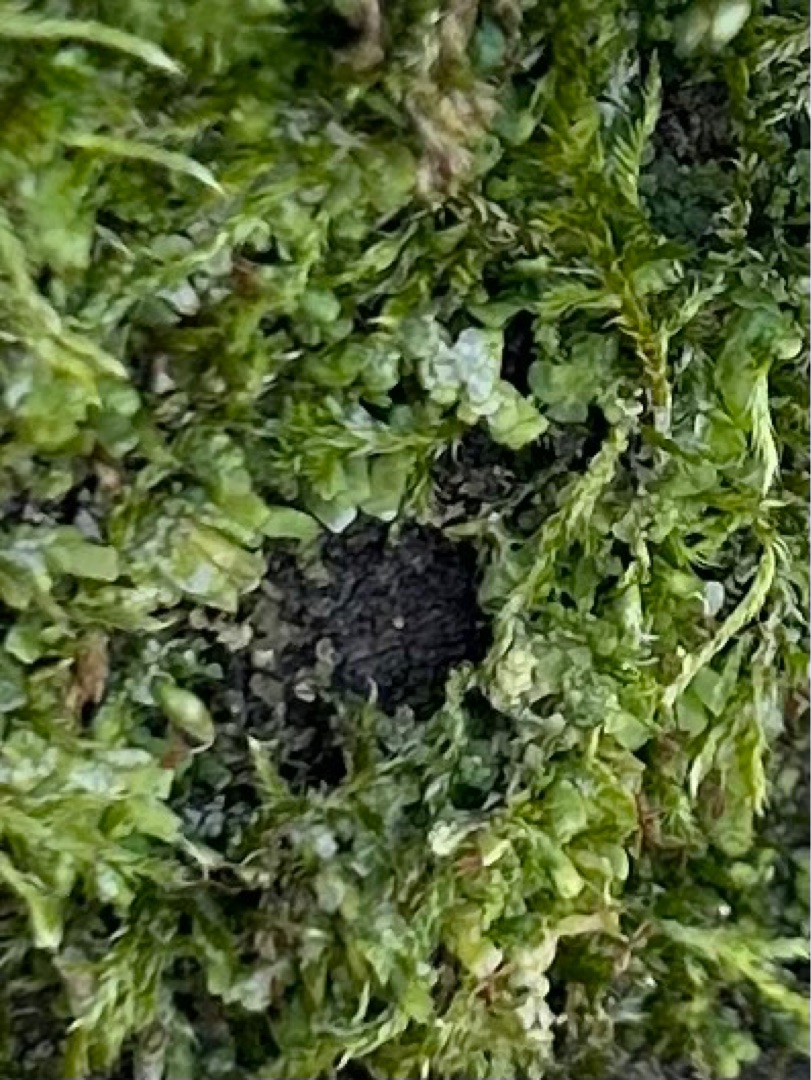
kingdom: Plantae
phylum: Marchantiophyta
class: Marchantiopsida
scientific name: Marchantiopsida
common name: Levermosser
